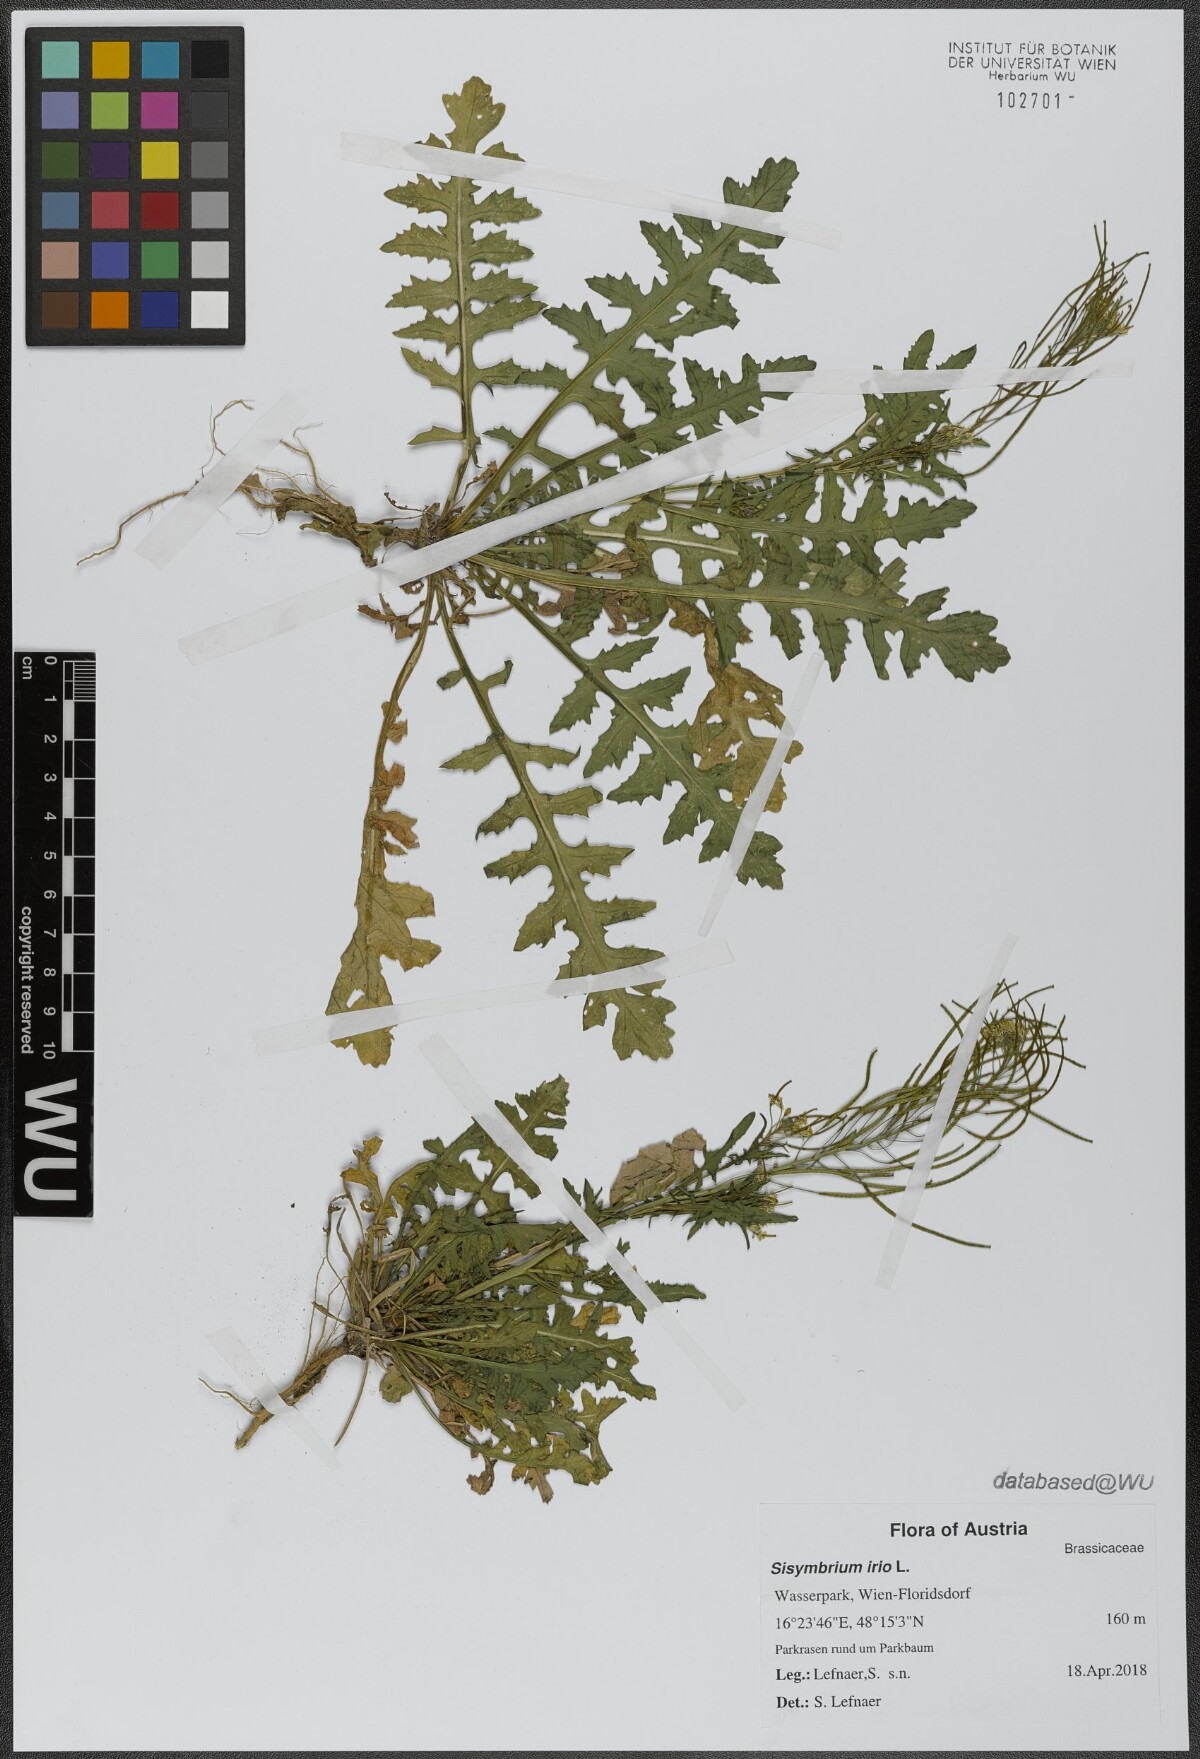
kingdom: Plantae
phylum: Tracheophyta
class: Magnoliopsida
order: Brassicales
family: Brassicaceae
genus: Sisymbrium
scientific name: Sisymbrium irio
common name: London rocket
